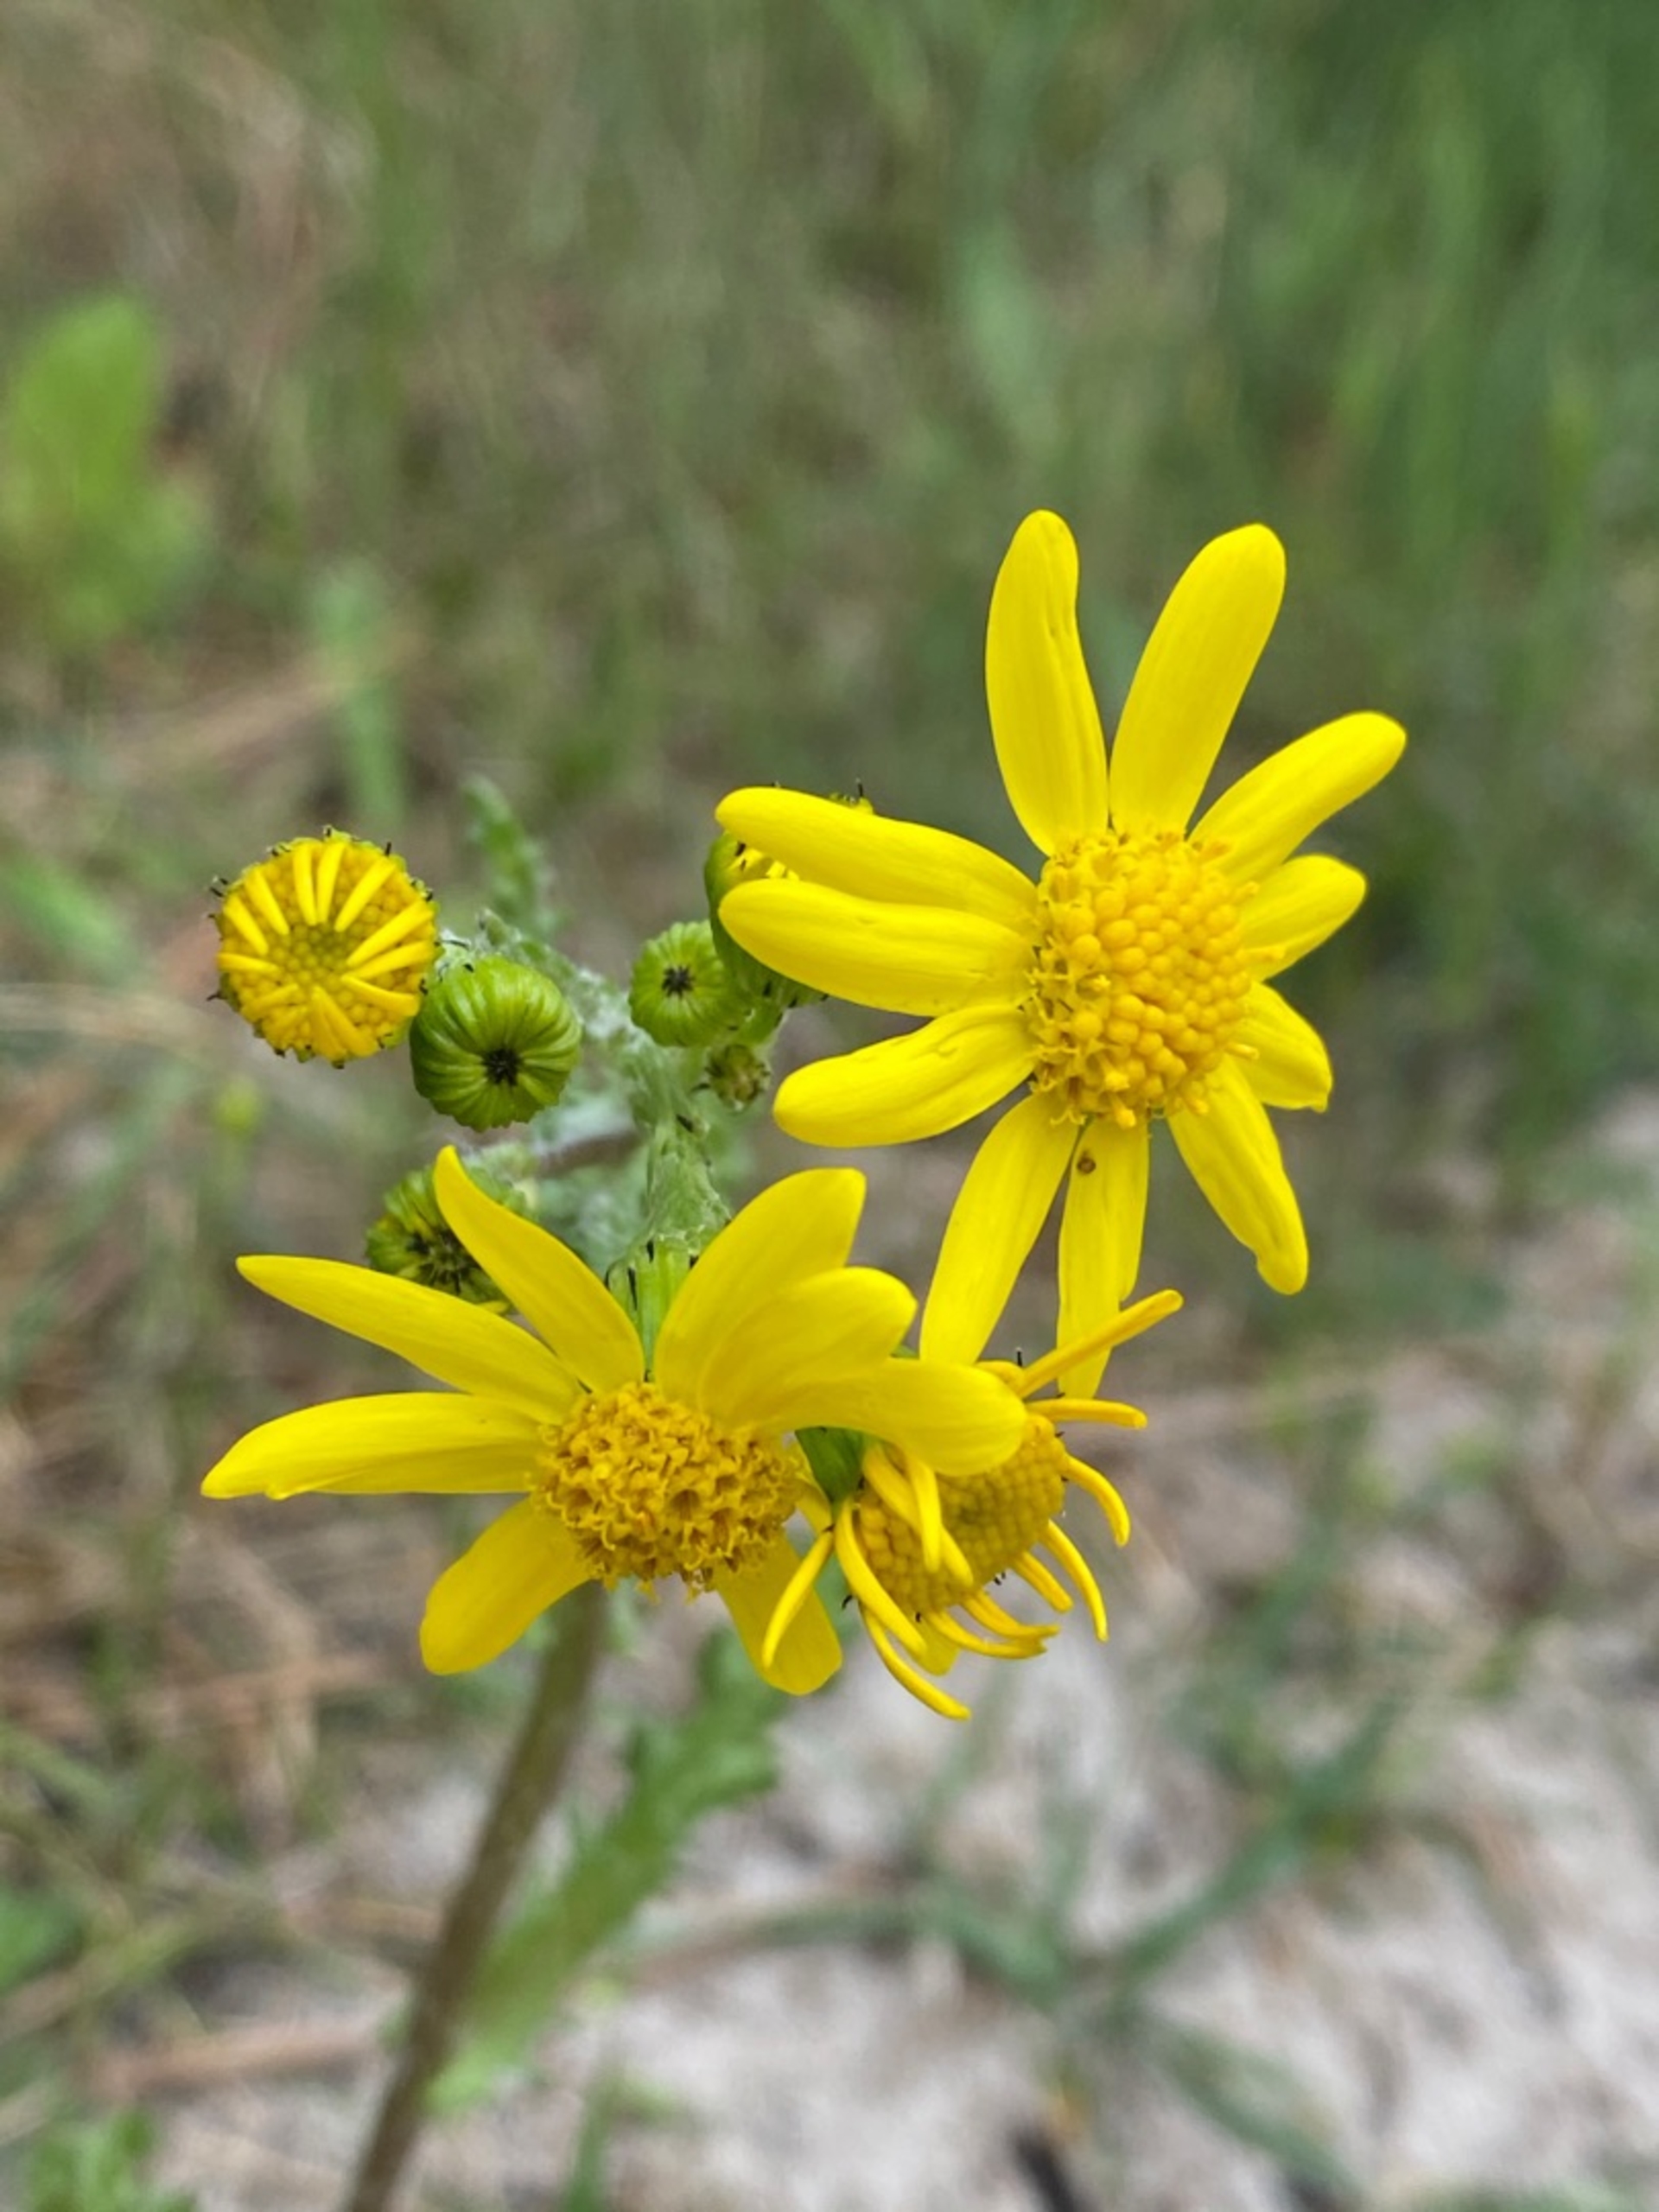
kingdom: Plantae
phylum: Tracheophyta
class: Magnoliopsida
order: Asterales
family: Asteraceae
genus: Senecio
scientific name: Senecio leucanthemifolius
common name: Vår-brandbæger
